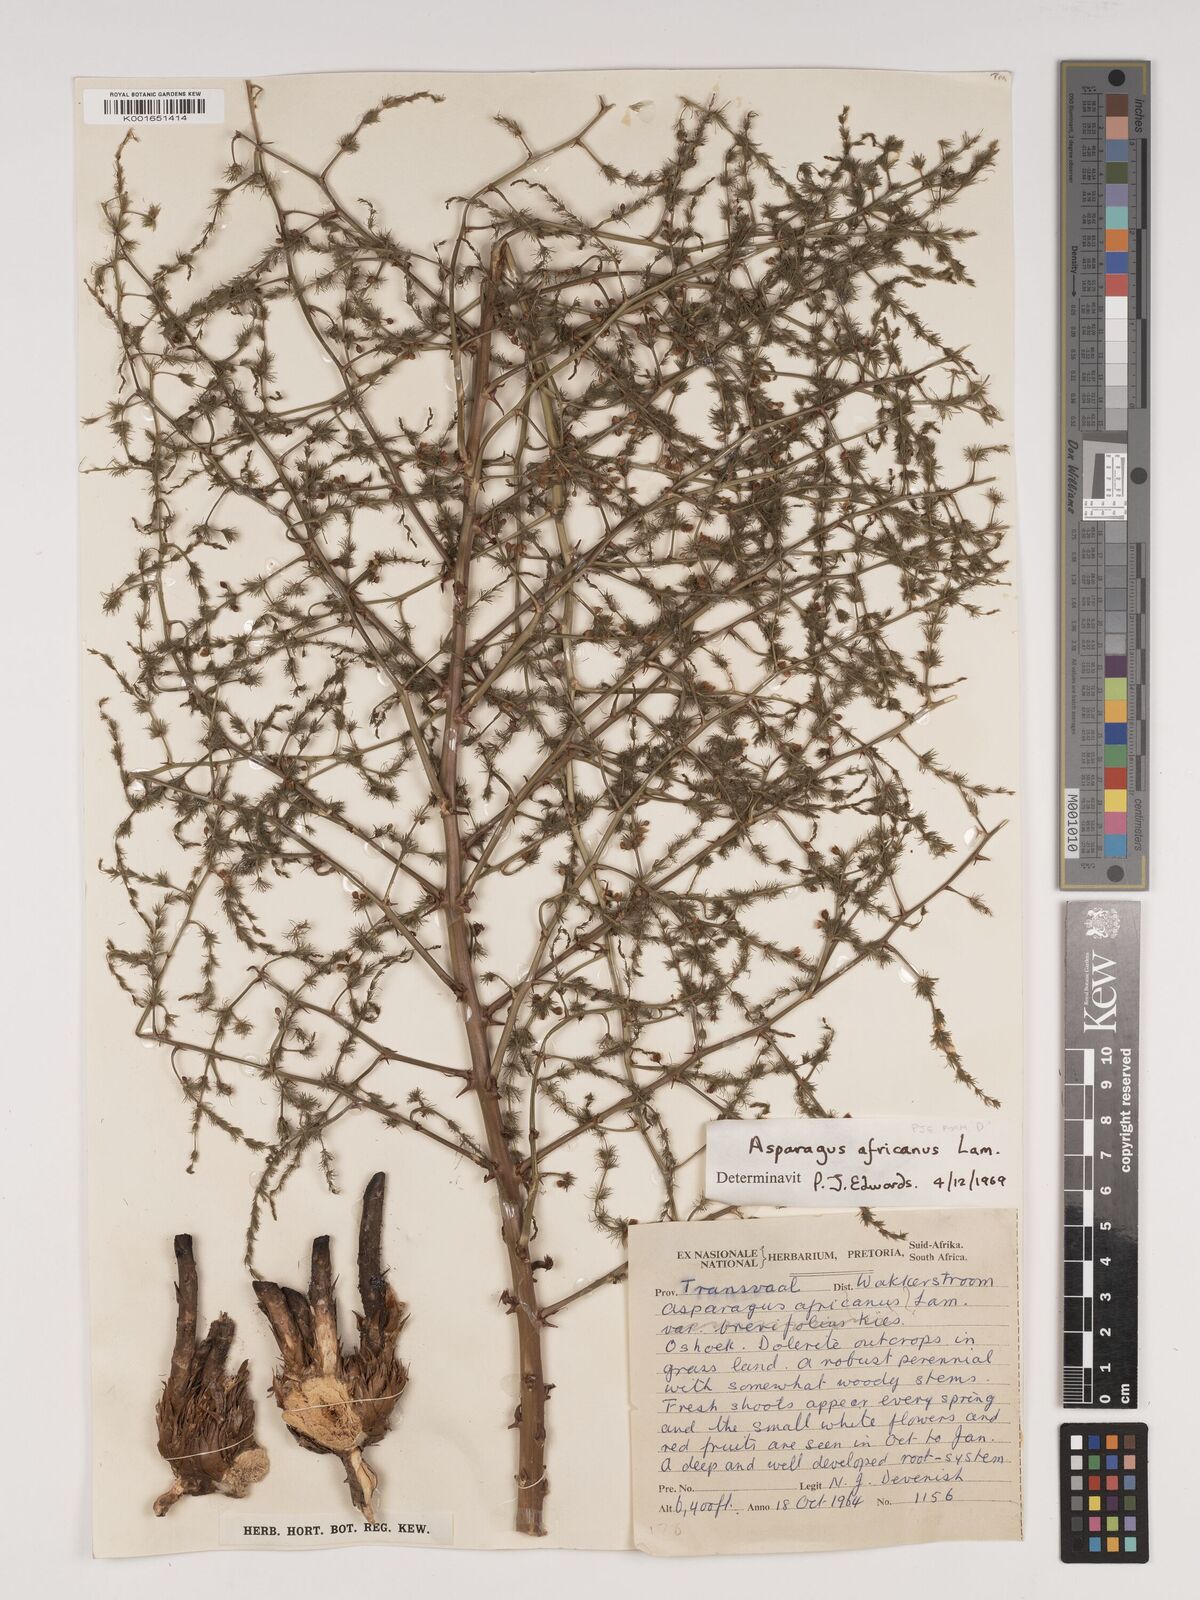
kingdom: Plantae
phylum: Tracheophyta
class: Liliopsida
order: Asparagales
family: Asparagaceae
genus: Asparagus
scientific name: Asparagus africanus
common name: Asparagus-fern
